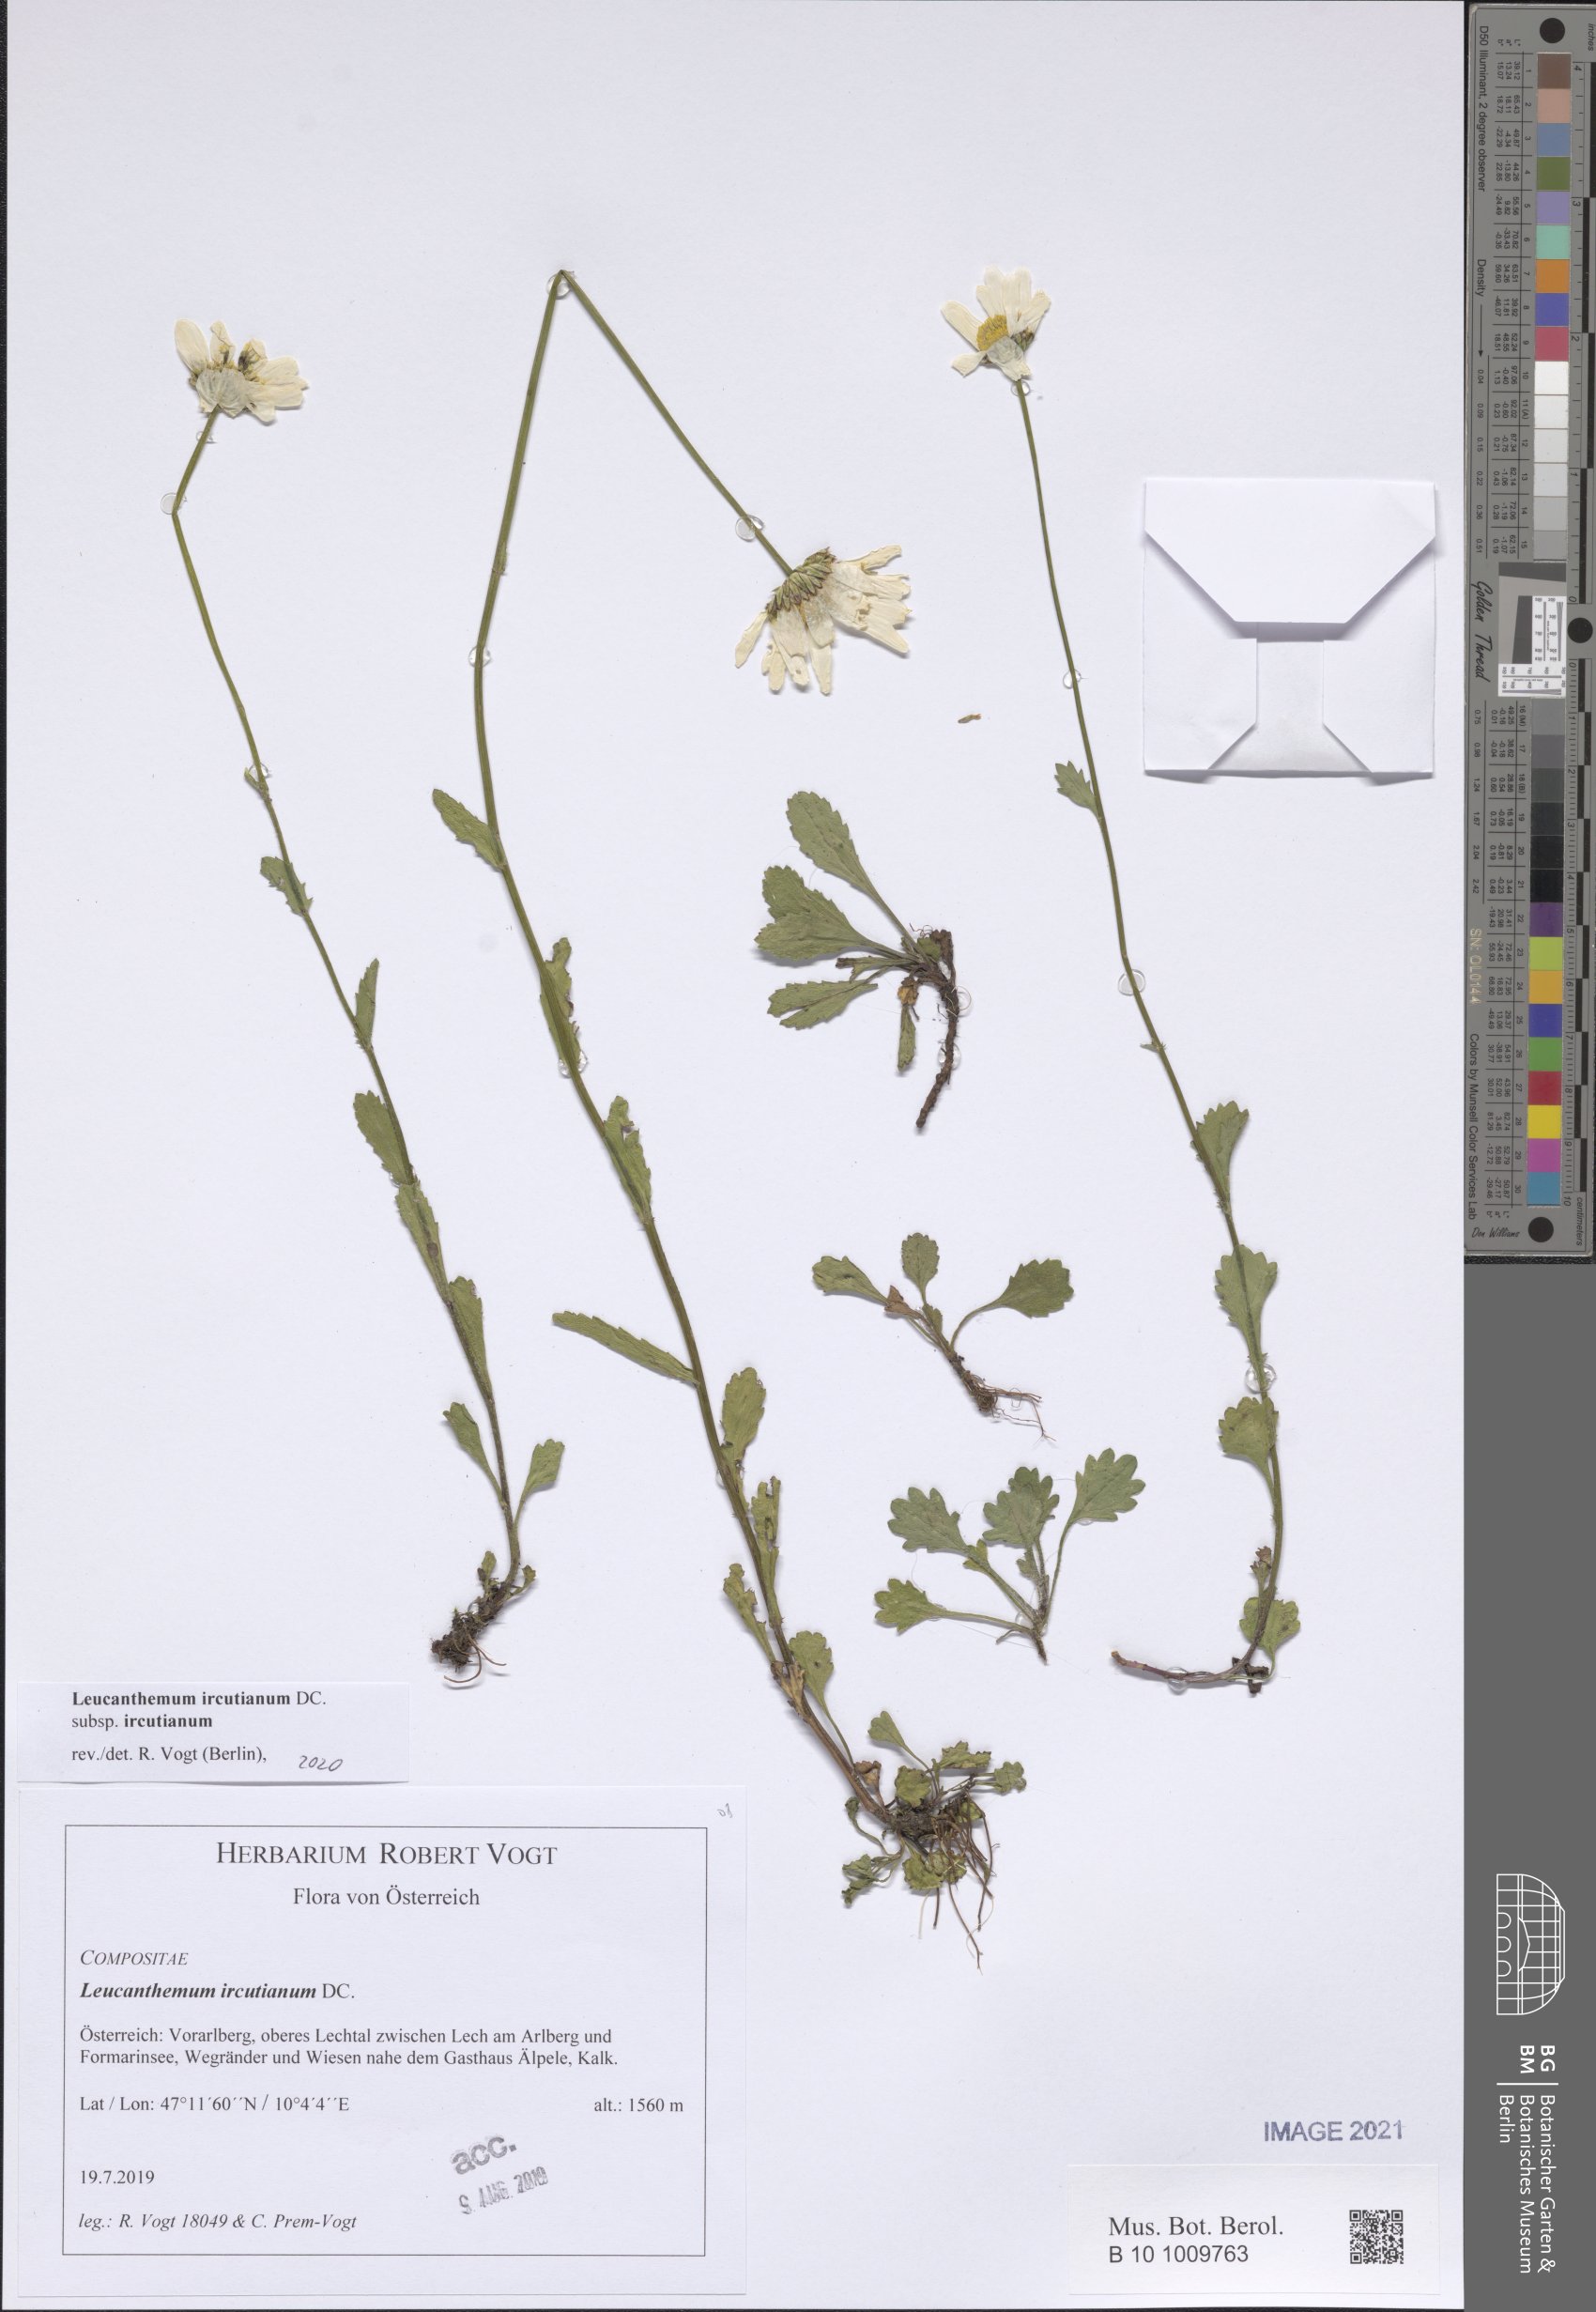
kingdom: Plantae
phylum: Tracheophyta
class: Magnoliopsida
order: Asterales
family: Asteraceae
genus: Leucanthemum
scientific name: Leucanthemum ircutianum
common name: Daisy
